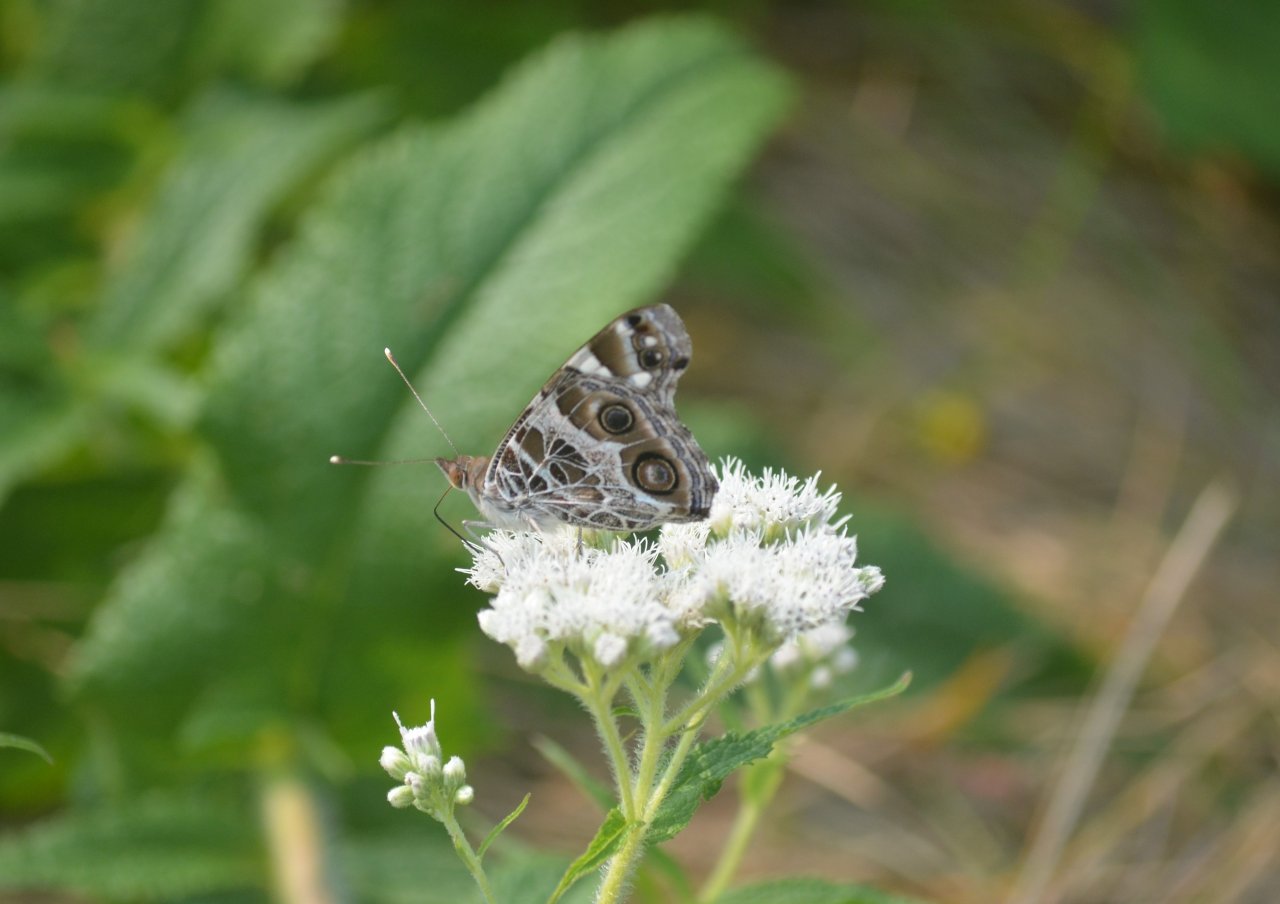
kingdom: Animalia
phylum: Arthropoda
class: Insecta
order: Lepidoptera
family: Nymphalidae
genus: Vanessa
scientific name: Vanessa virginiensis
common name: American Lady
